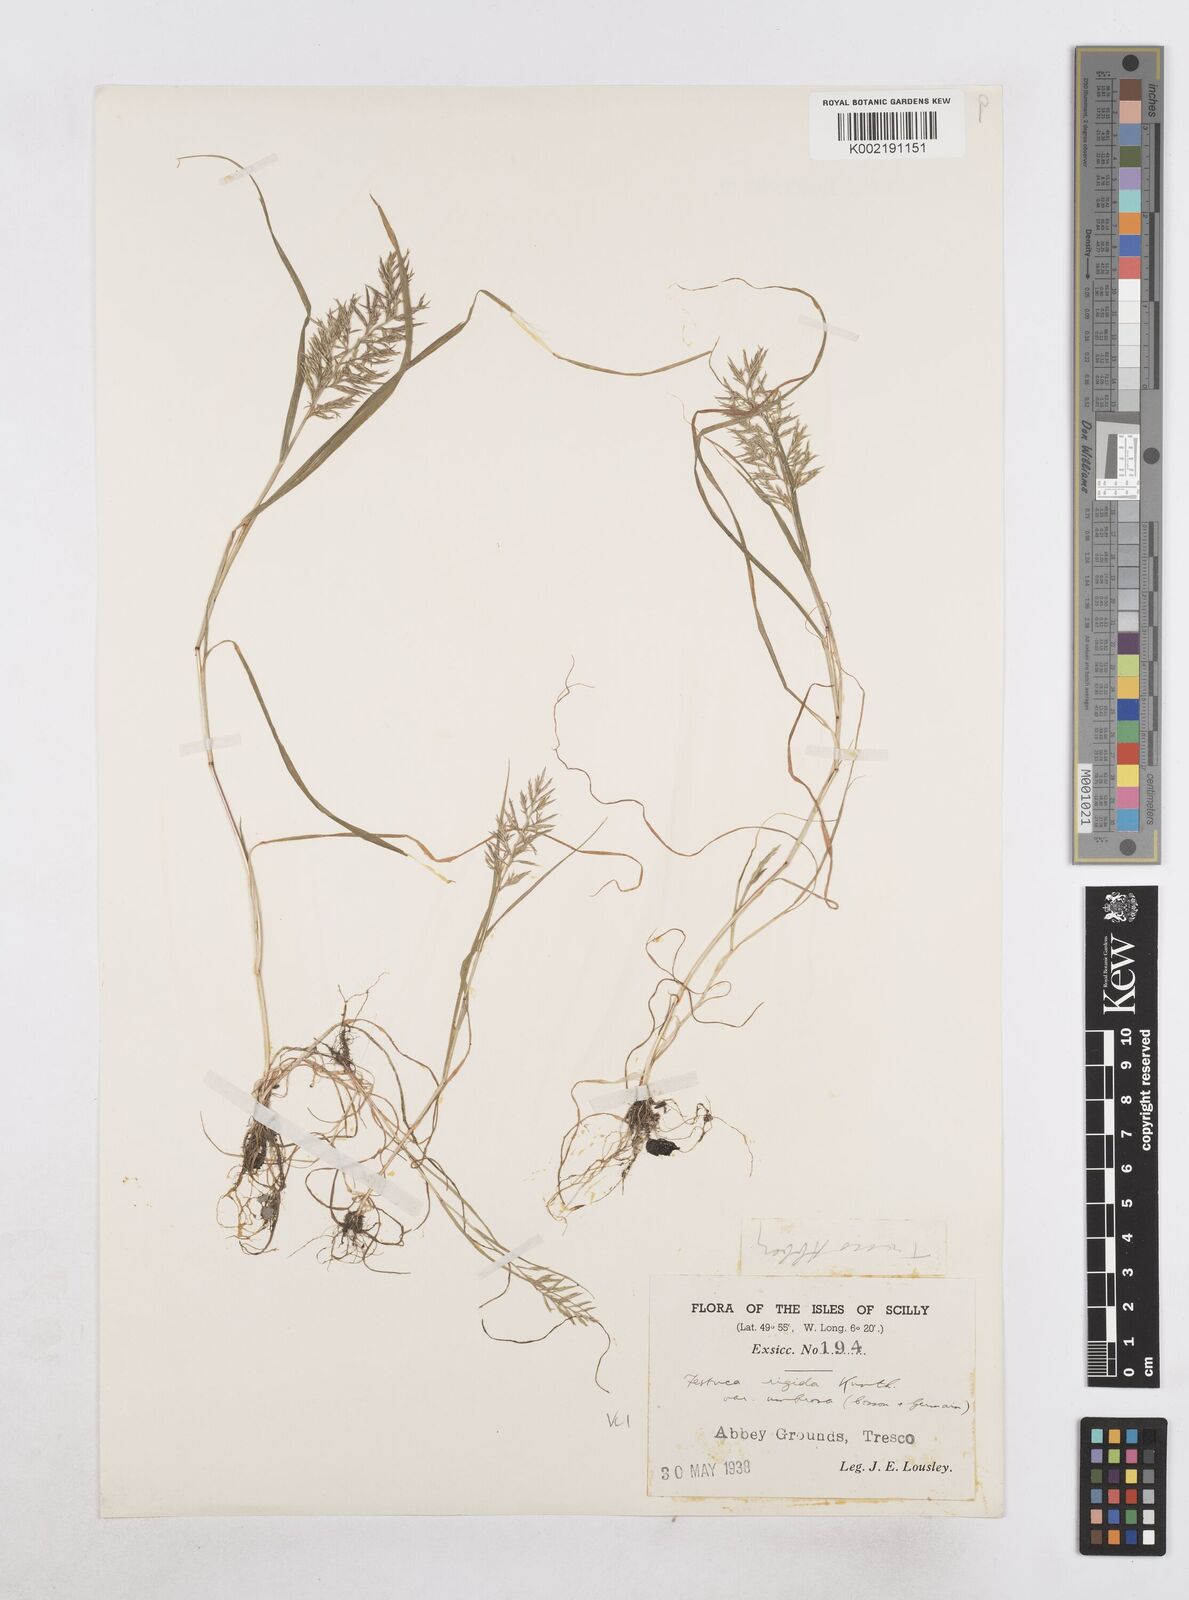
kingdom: Plantae
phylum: Tracheophyta
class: Liliopsida
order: Poales
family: Poaceae
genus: Catapodium
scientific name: Catapodium rigidum
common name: Fern-grass
